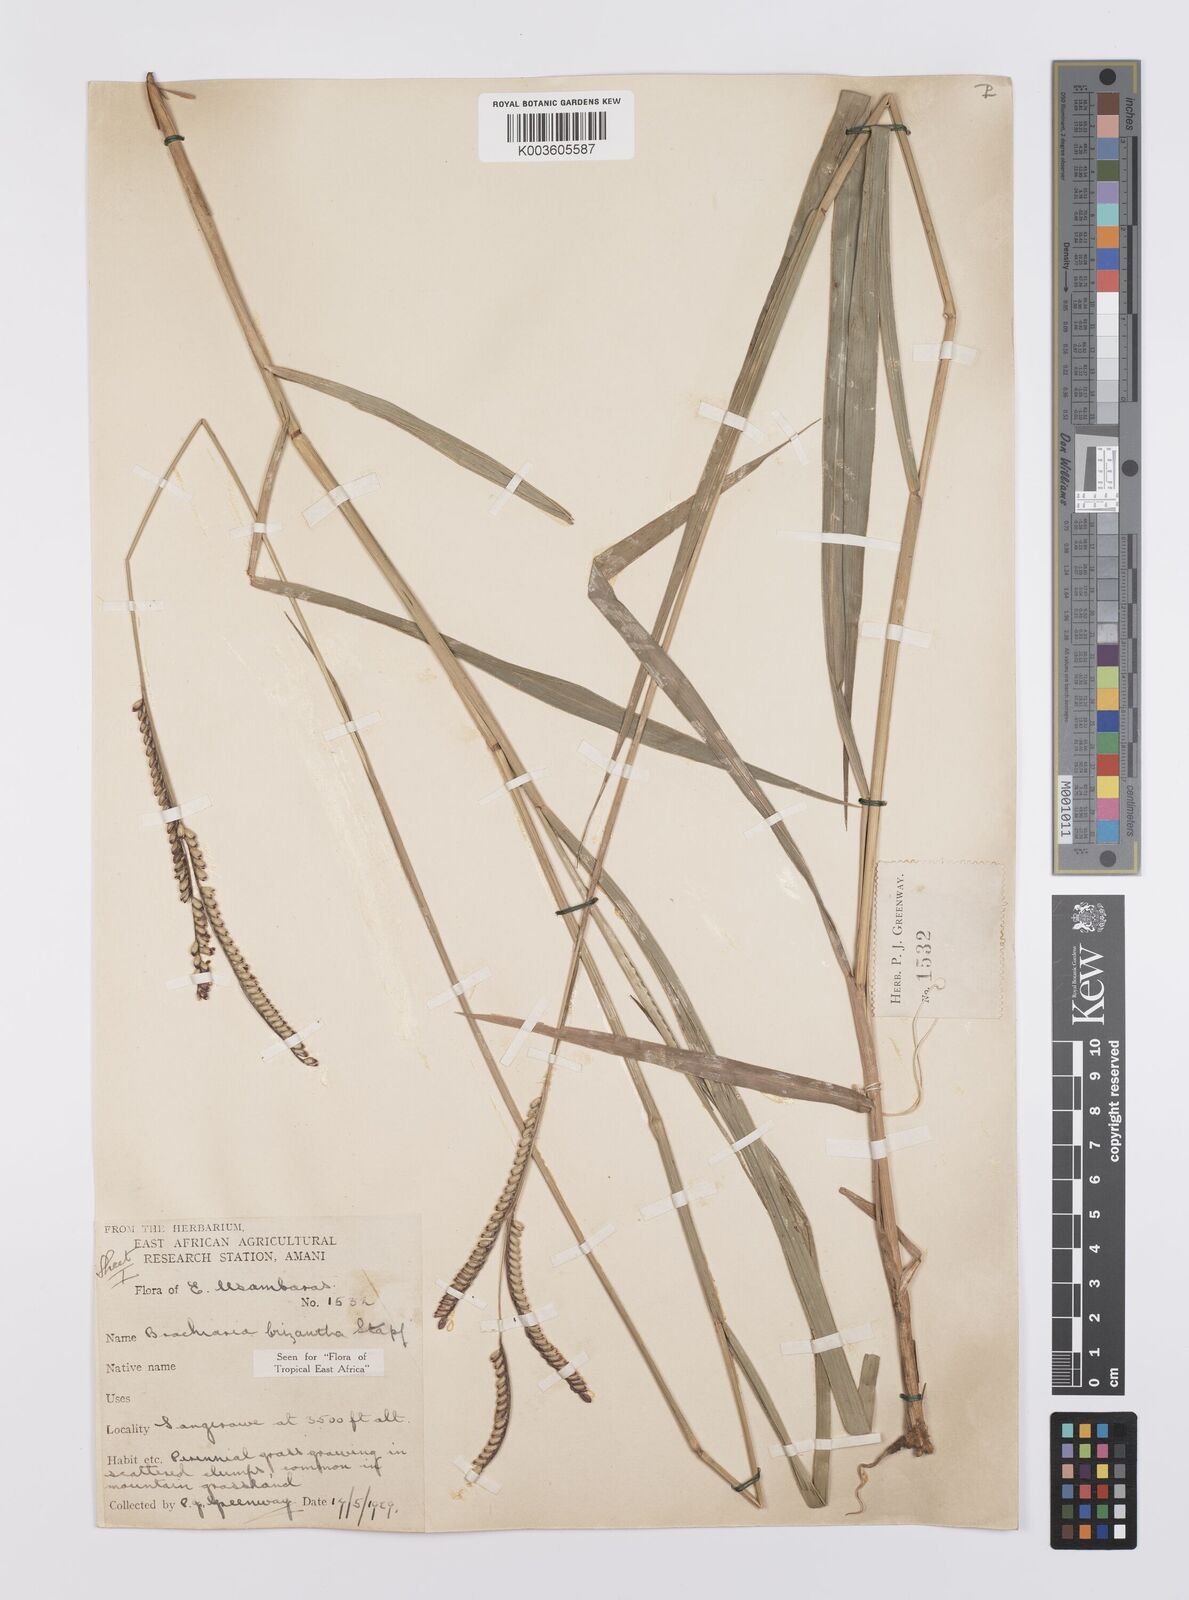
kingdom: Plantae
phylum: Tracheophyta
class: Liliopsida
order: Poales
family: Poaceae
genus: Urochloa
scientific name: Urochloa brizantha
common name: Palisade signalgrass
